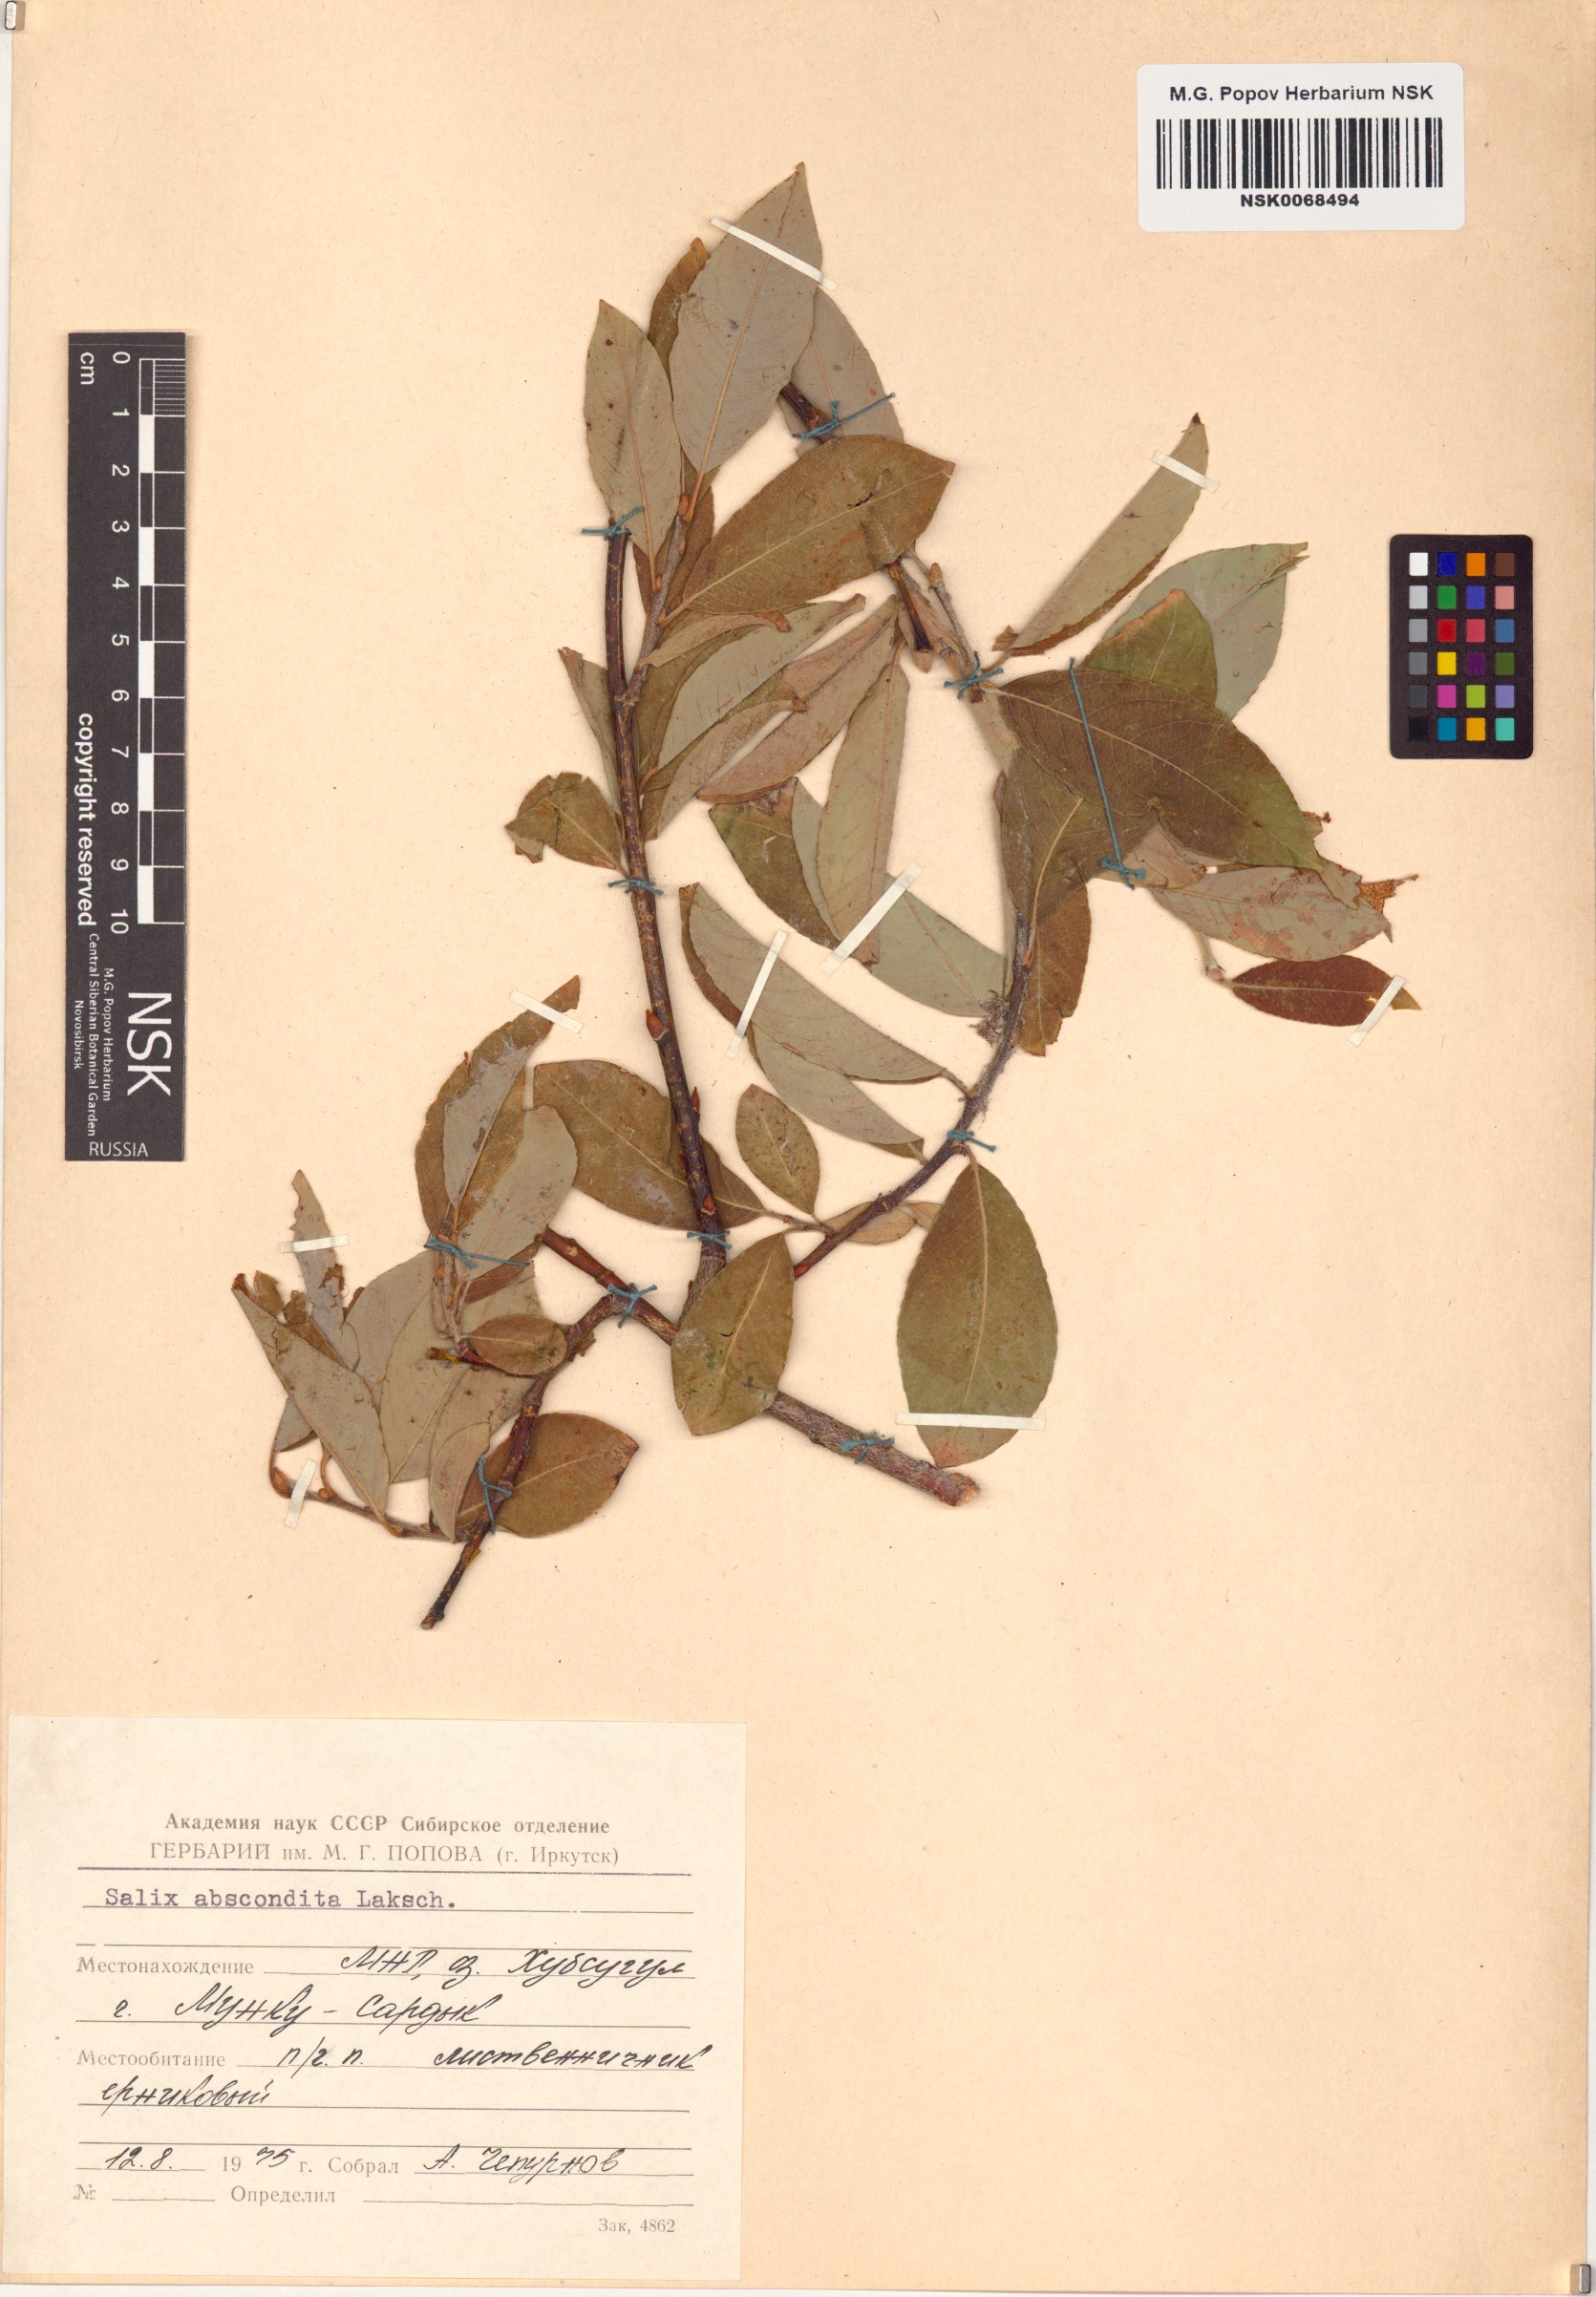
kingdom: Plantae
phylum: Tracheophyta
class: Magnoliopsida
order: Malpighiales
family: Salicaceae
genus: Salix
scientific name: Salix abscondita
